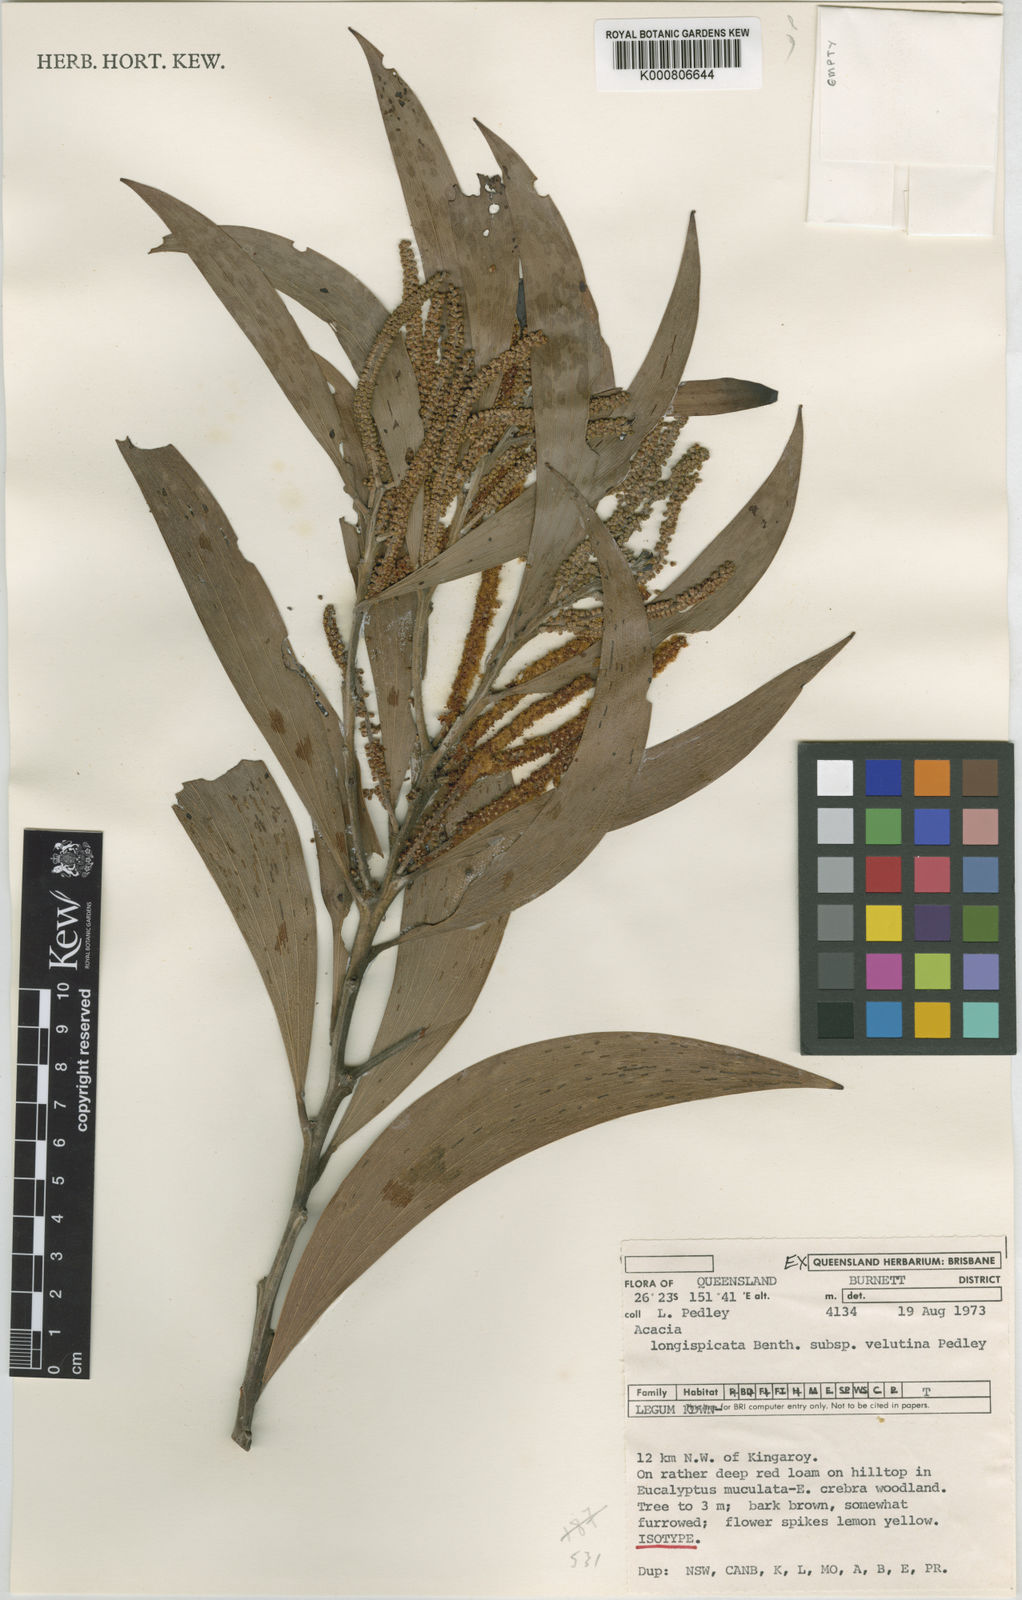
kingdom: Plantae
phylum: Tracheophyta
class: Magnoliopsida
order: Fabales
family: Fabaceae
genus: Acacia
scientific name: Acacia longispicata
